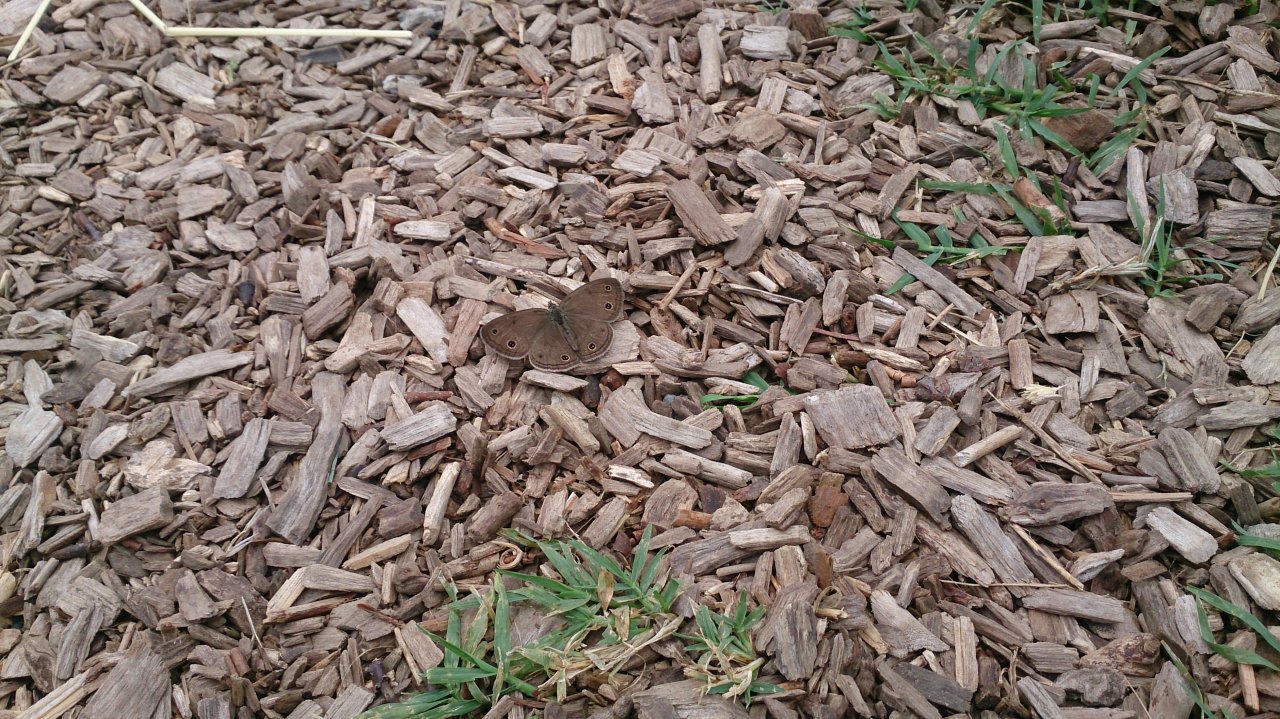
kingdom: Animalia
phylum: Arthropoda
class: Insecta
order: Lepidoptera
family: Nymphalidae
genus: Euptychia
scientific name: Euptychia cymela
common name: Little Wood Satyr
